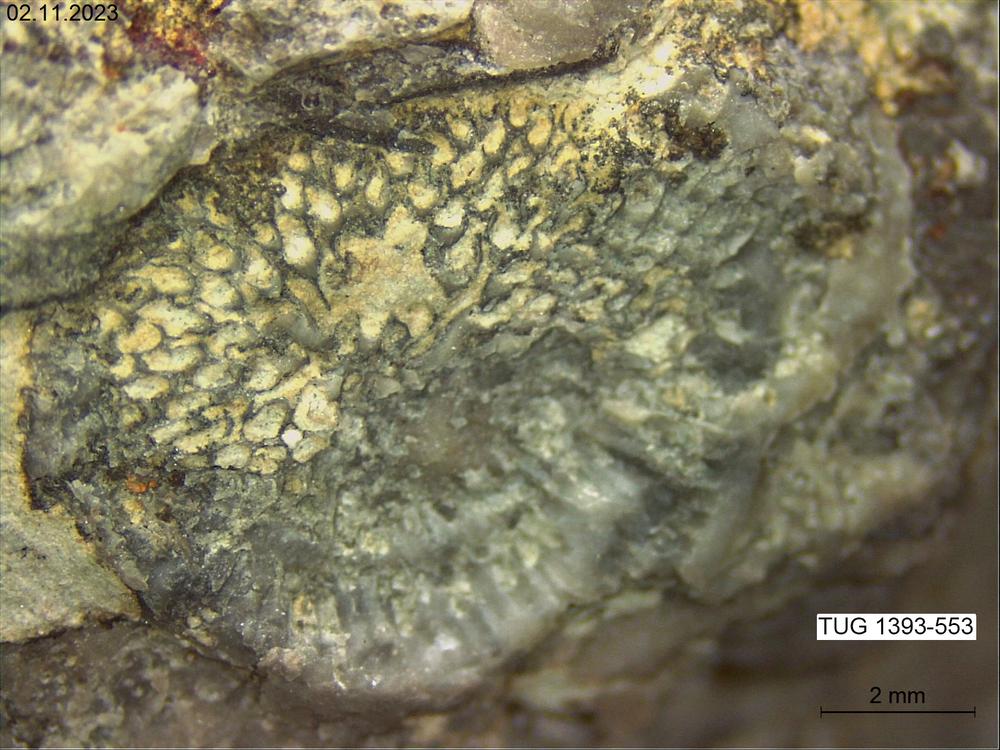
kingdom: Animalia
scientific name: Animalia
